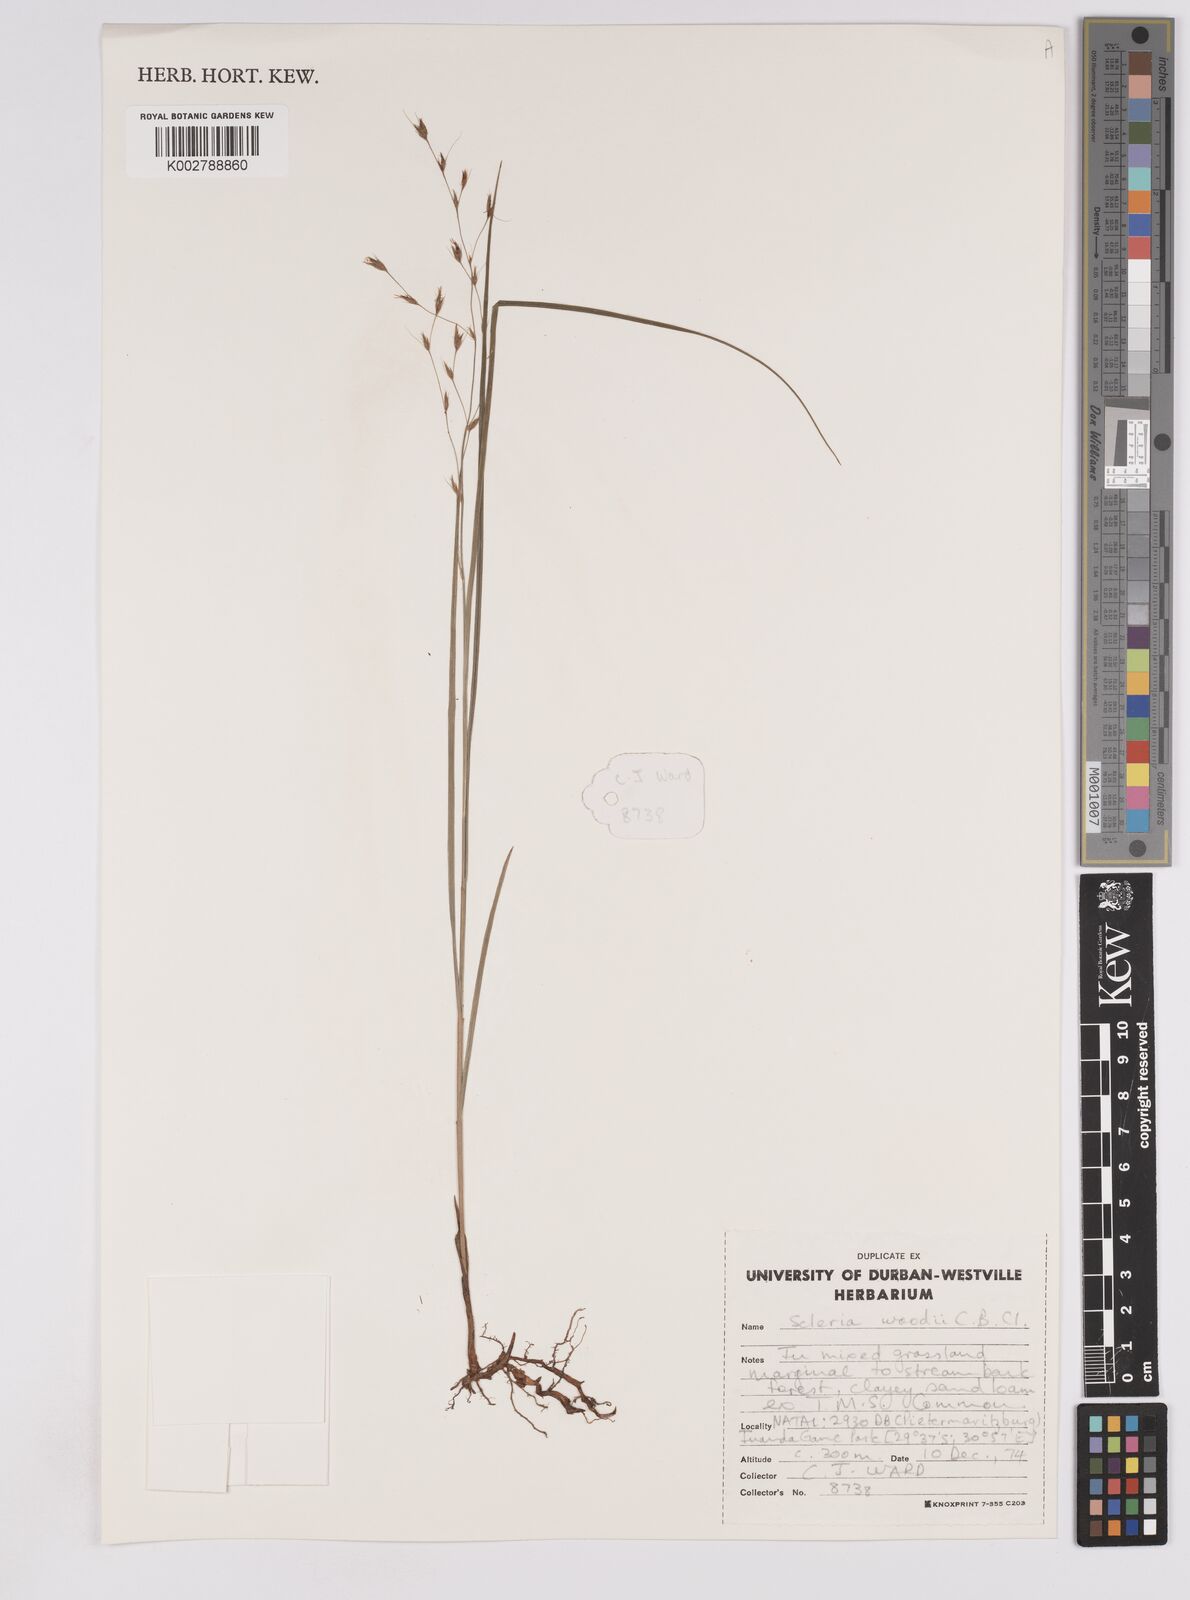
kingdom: Plantae
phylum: Tracheophyta
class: Liliopsida
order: Poales
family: Cyperaceae
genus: Scleria
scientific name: Scleria woodii
